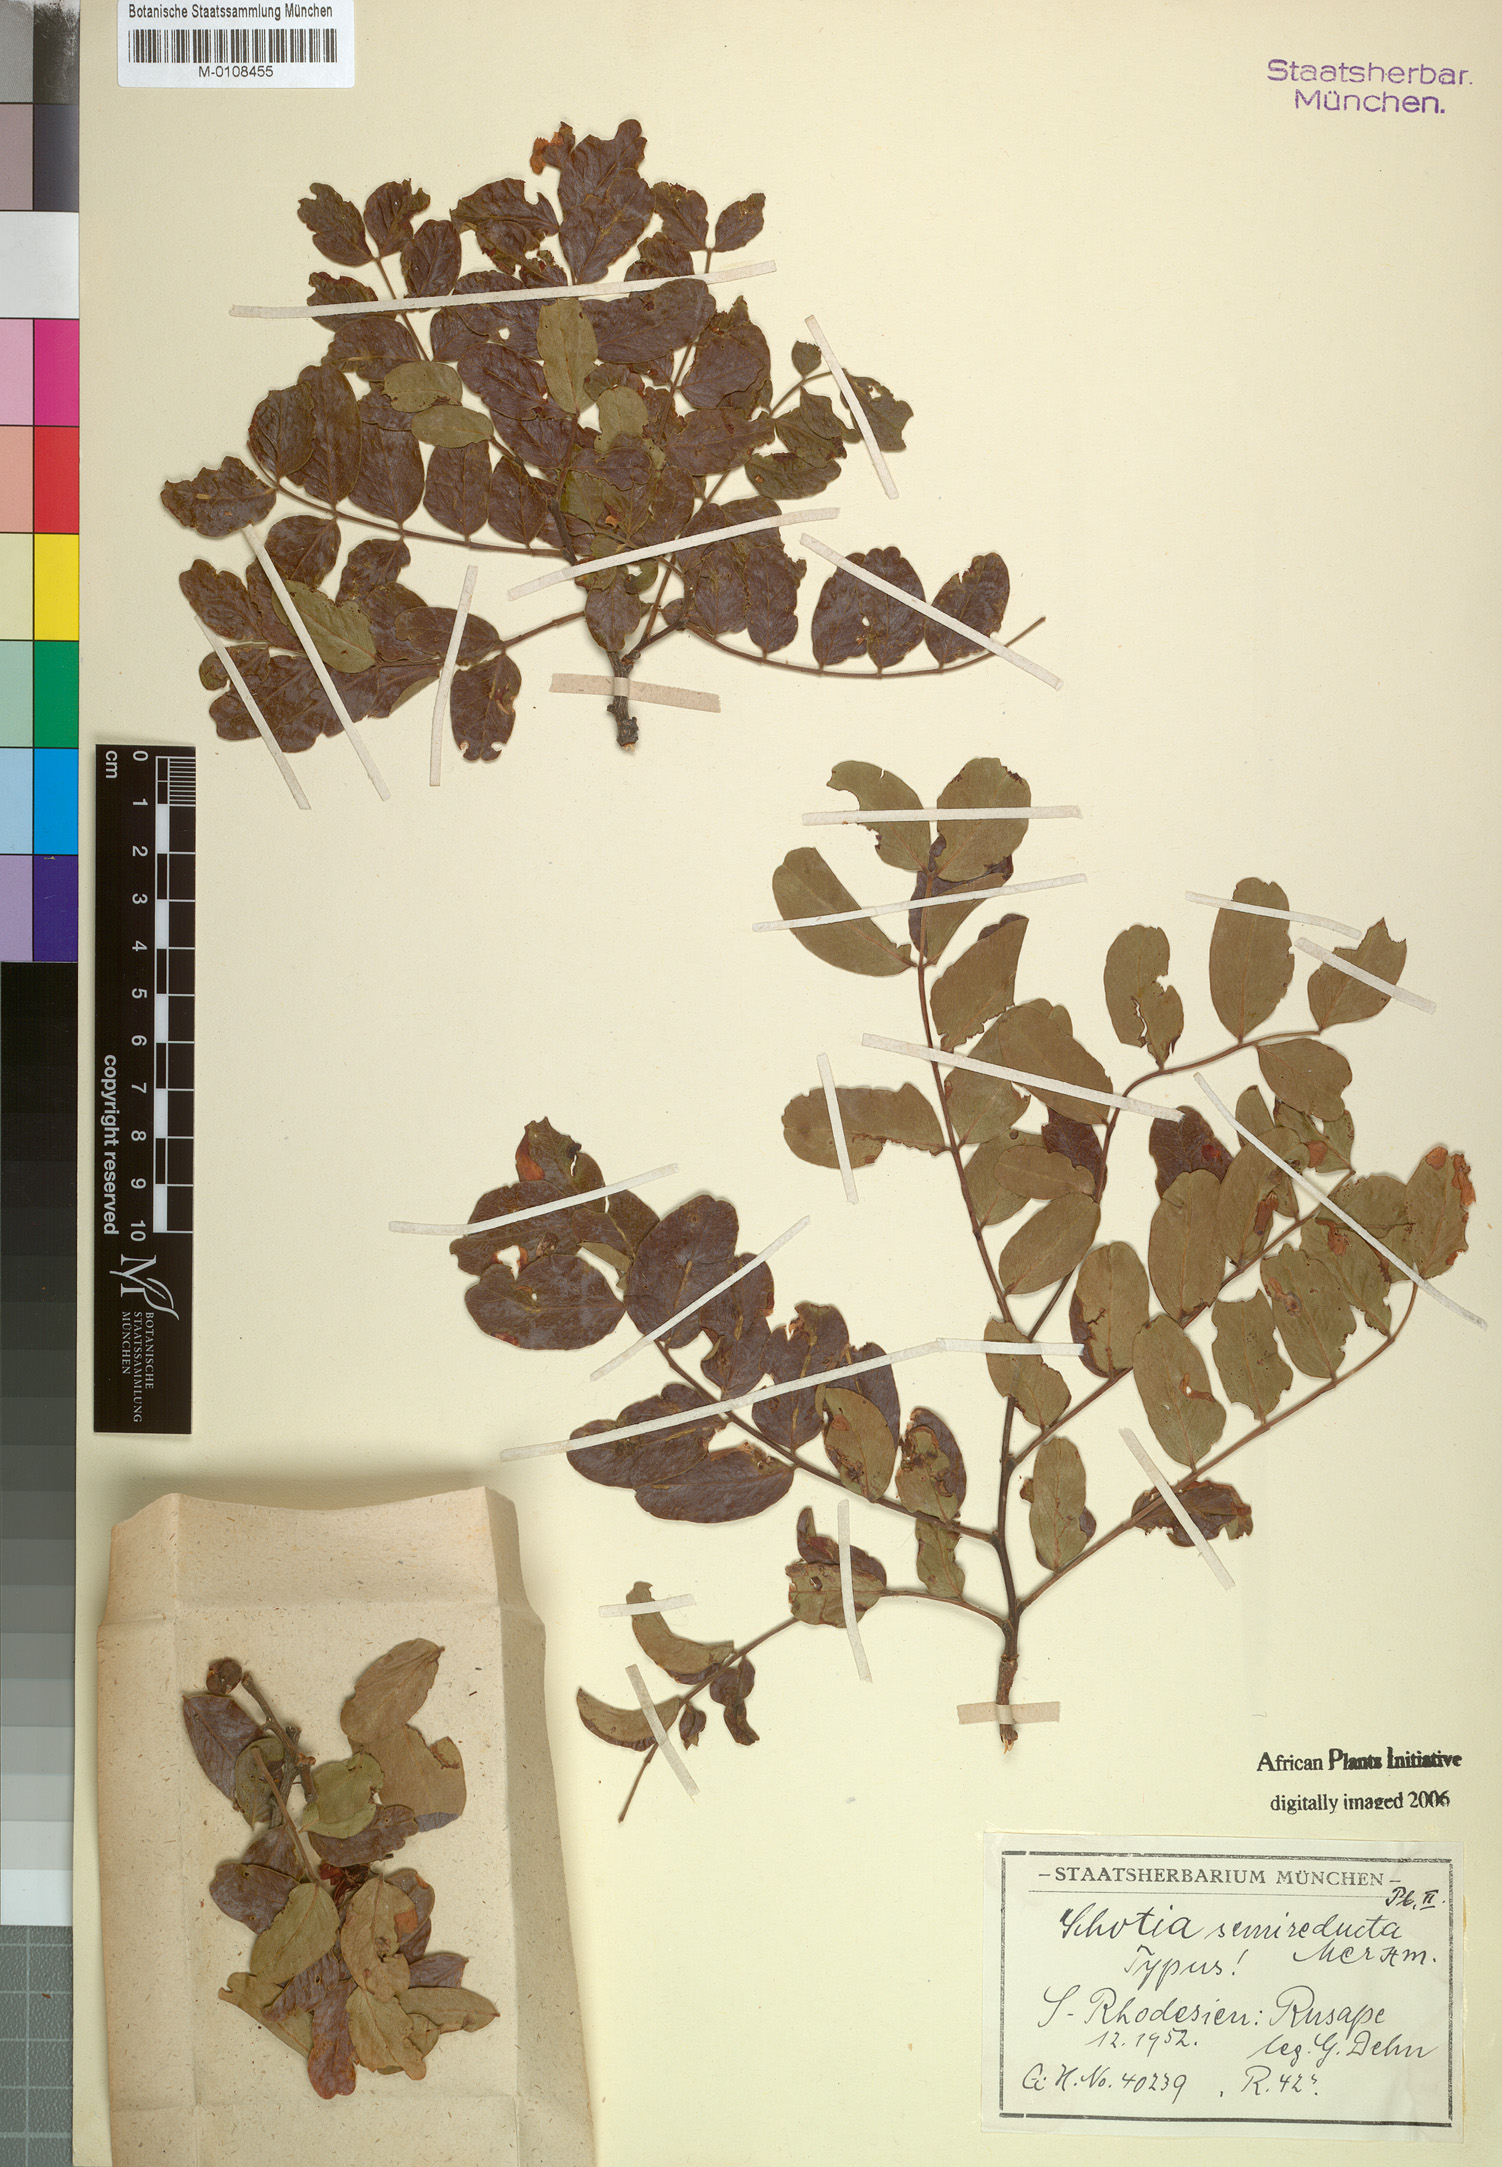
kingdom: Plantae
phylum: Tracheophyta
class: Magnoliopsida
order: Fabales
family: Fabaceae
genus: Schotia
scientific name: Schotia brachypetala
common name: Weeping boer-bean
